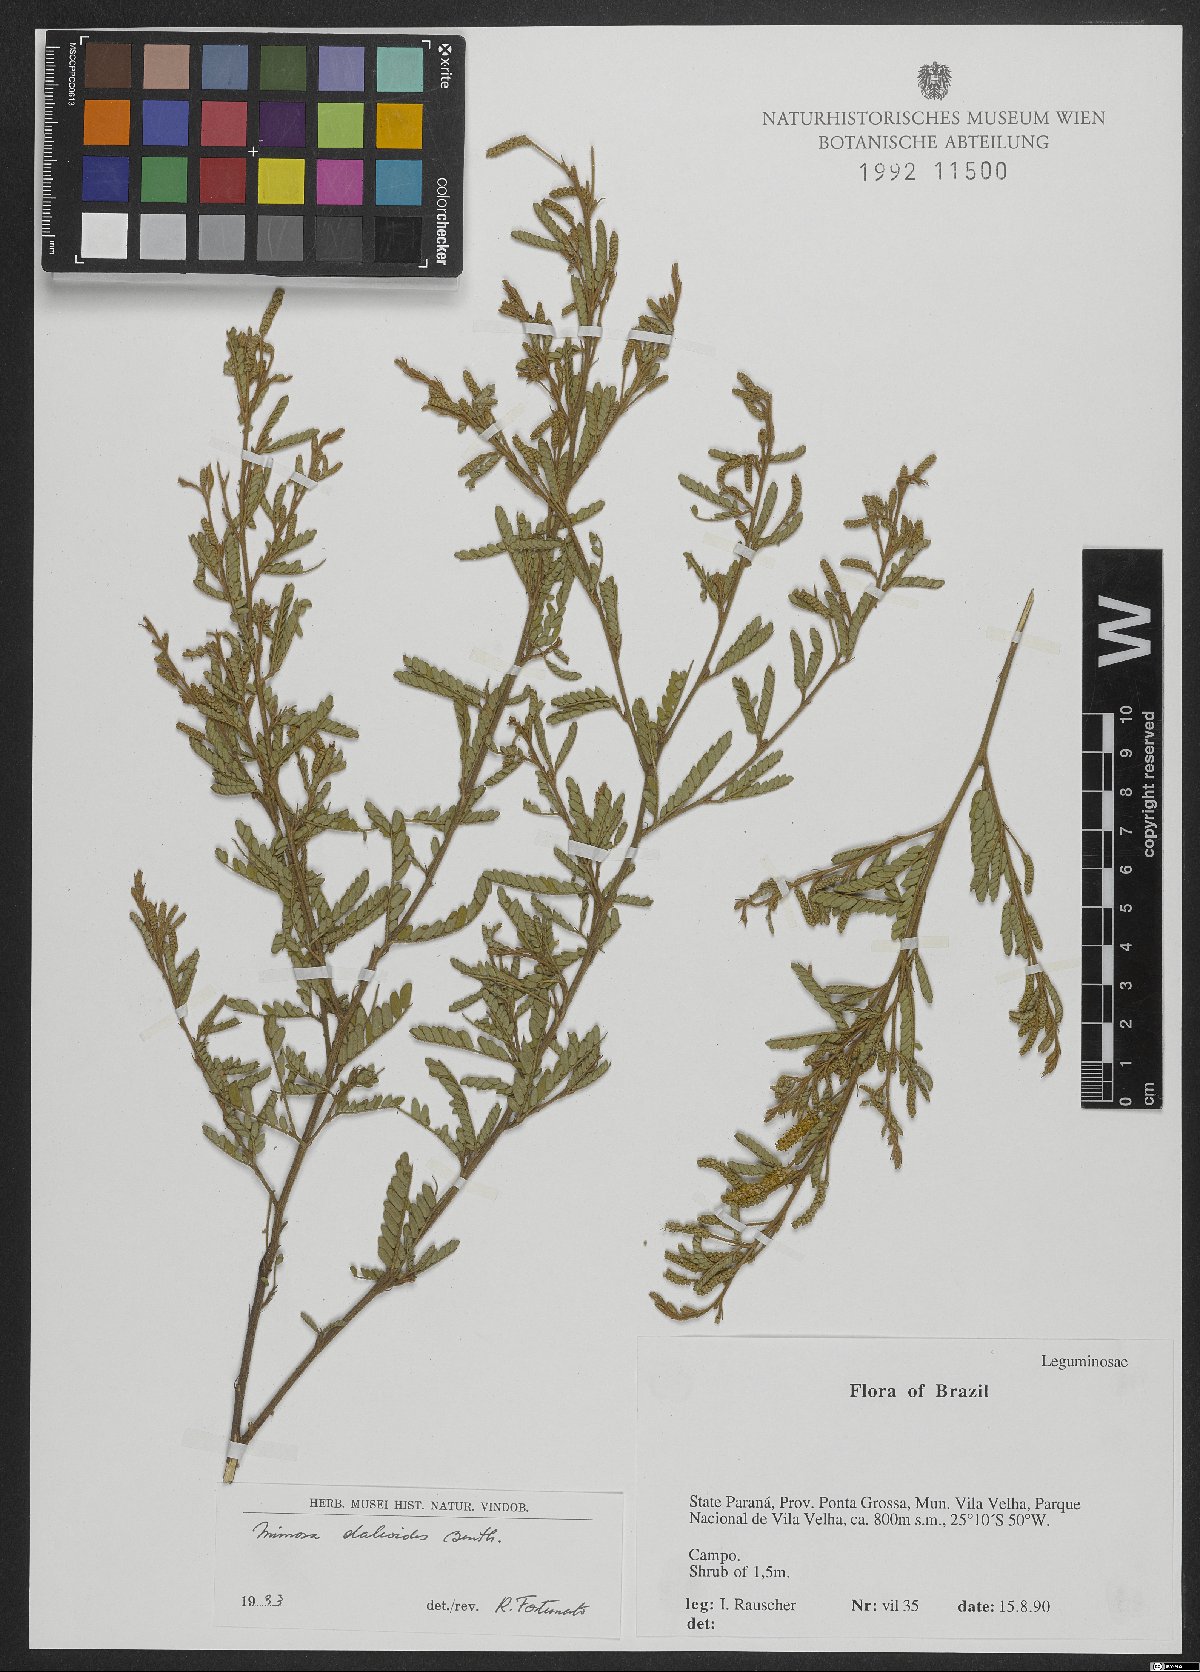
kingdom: Plantae
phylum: Tracheophyta
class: Magnoliopsida
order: Fabales
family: Fabaceae
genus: Mimosa
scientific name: Mimosa daleoides
